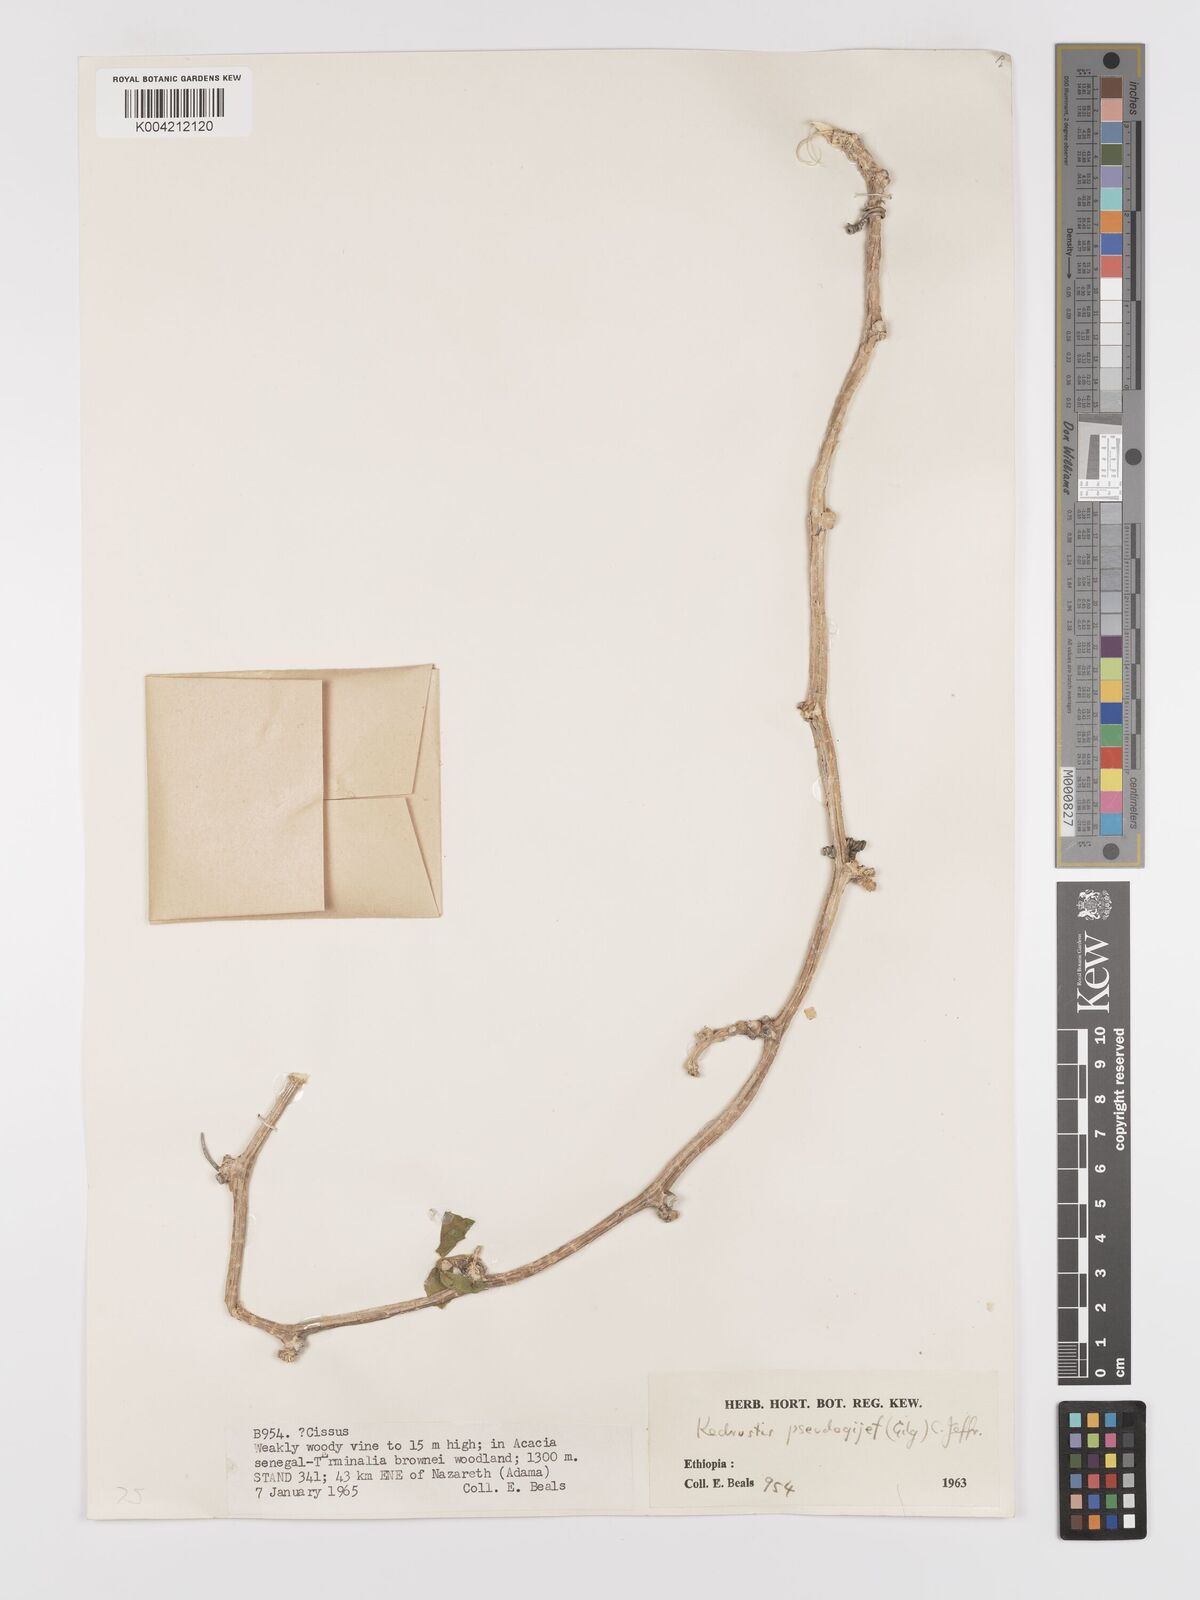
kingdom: Plantae
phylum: Tracheophyta
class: Magnoliopsida
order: Cucurbitales
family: Cucurbitaceae
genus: Kedrostis
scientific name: Kedrostis pseudogijef
